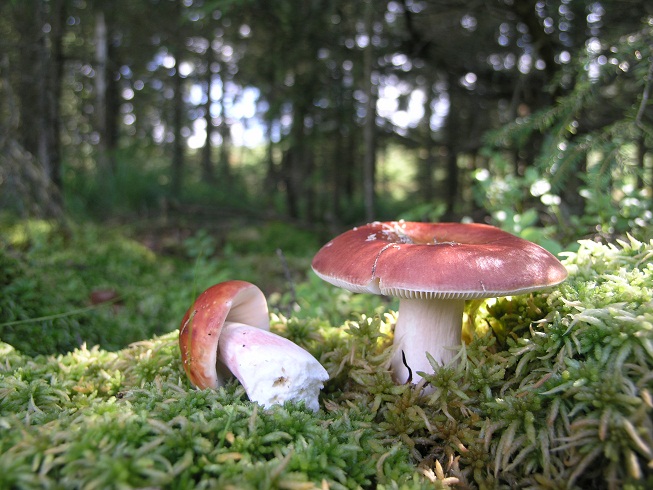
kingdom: Fungi
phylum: Basidiomycota
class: Agaricomycetes
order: Russulales
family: Russulaceae
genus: Russula
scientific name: Russula paludosa
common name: prægtig skørhat
